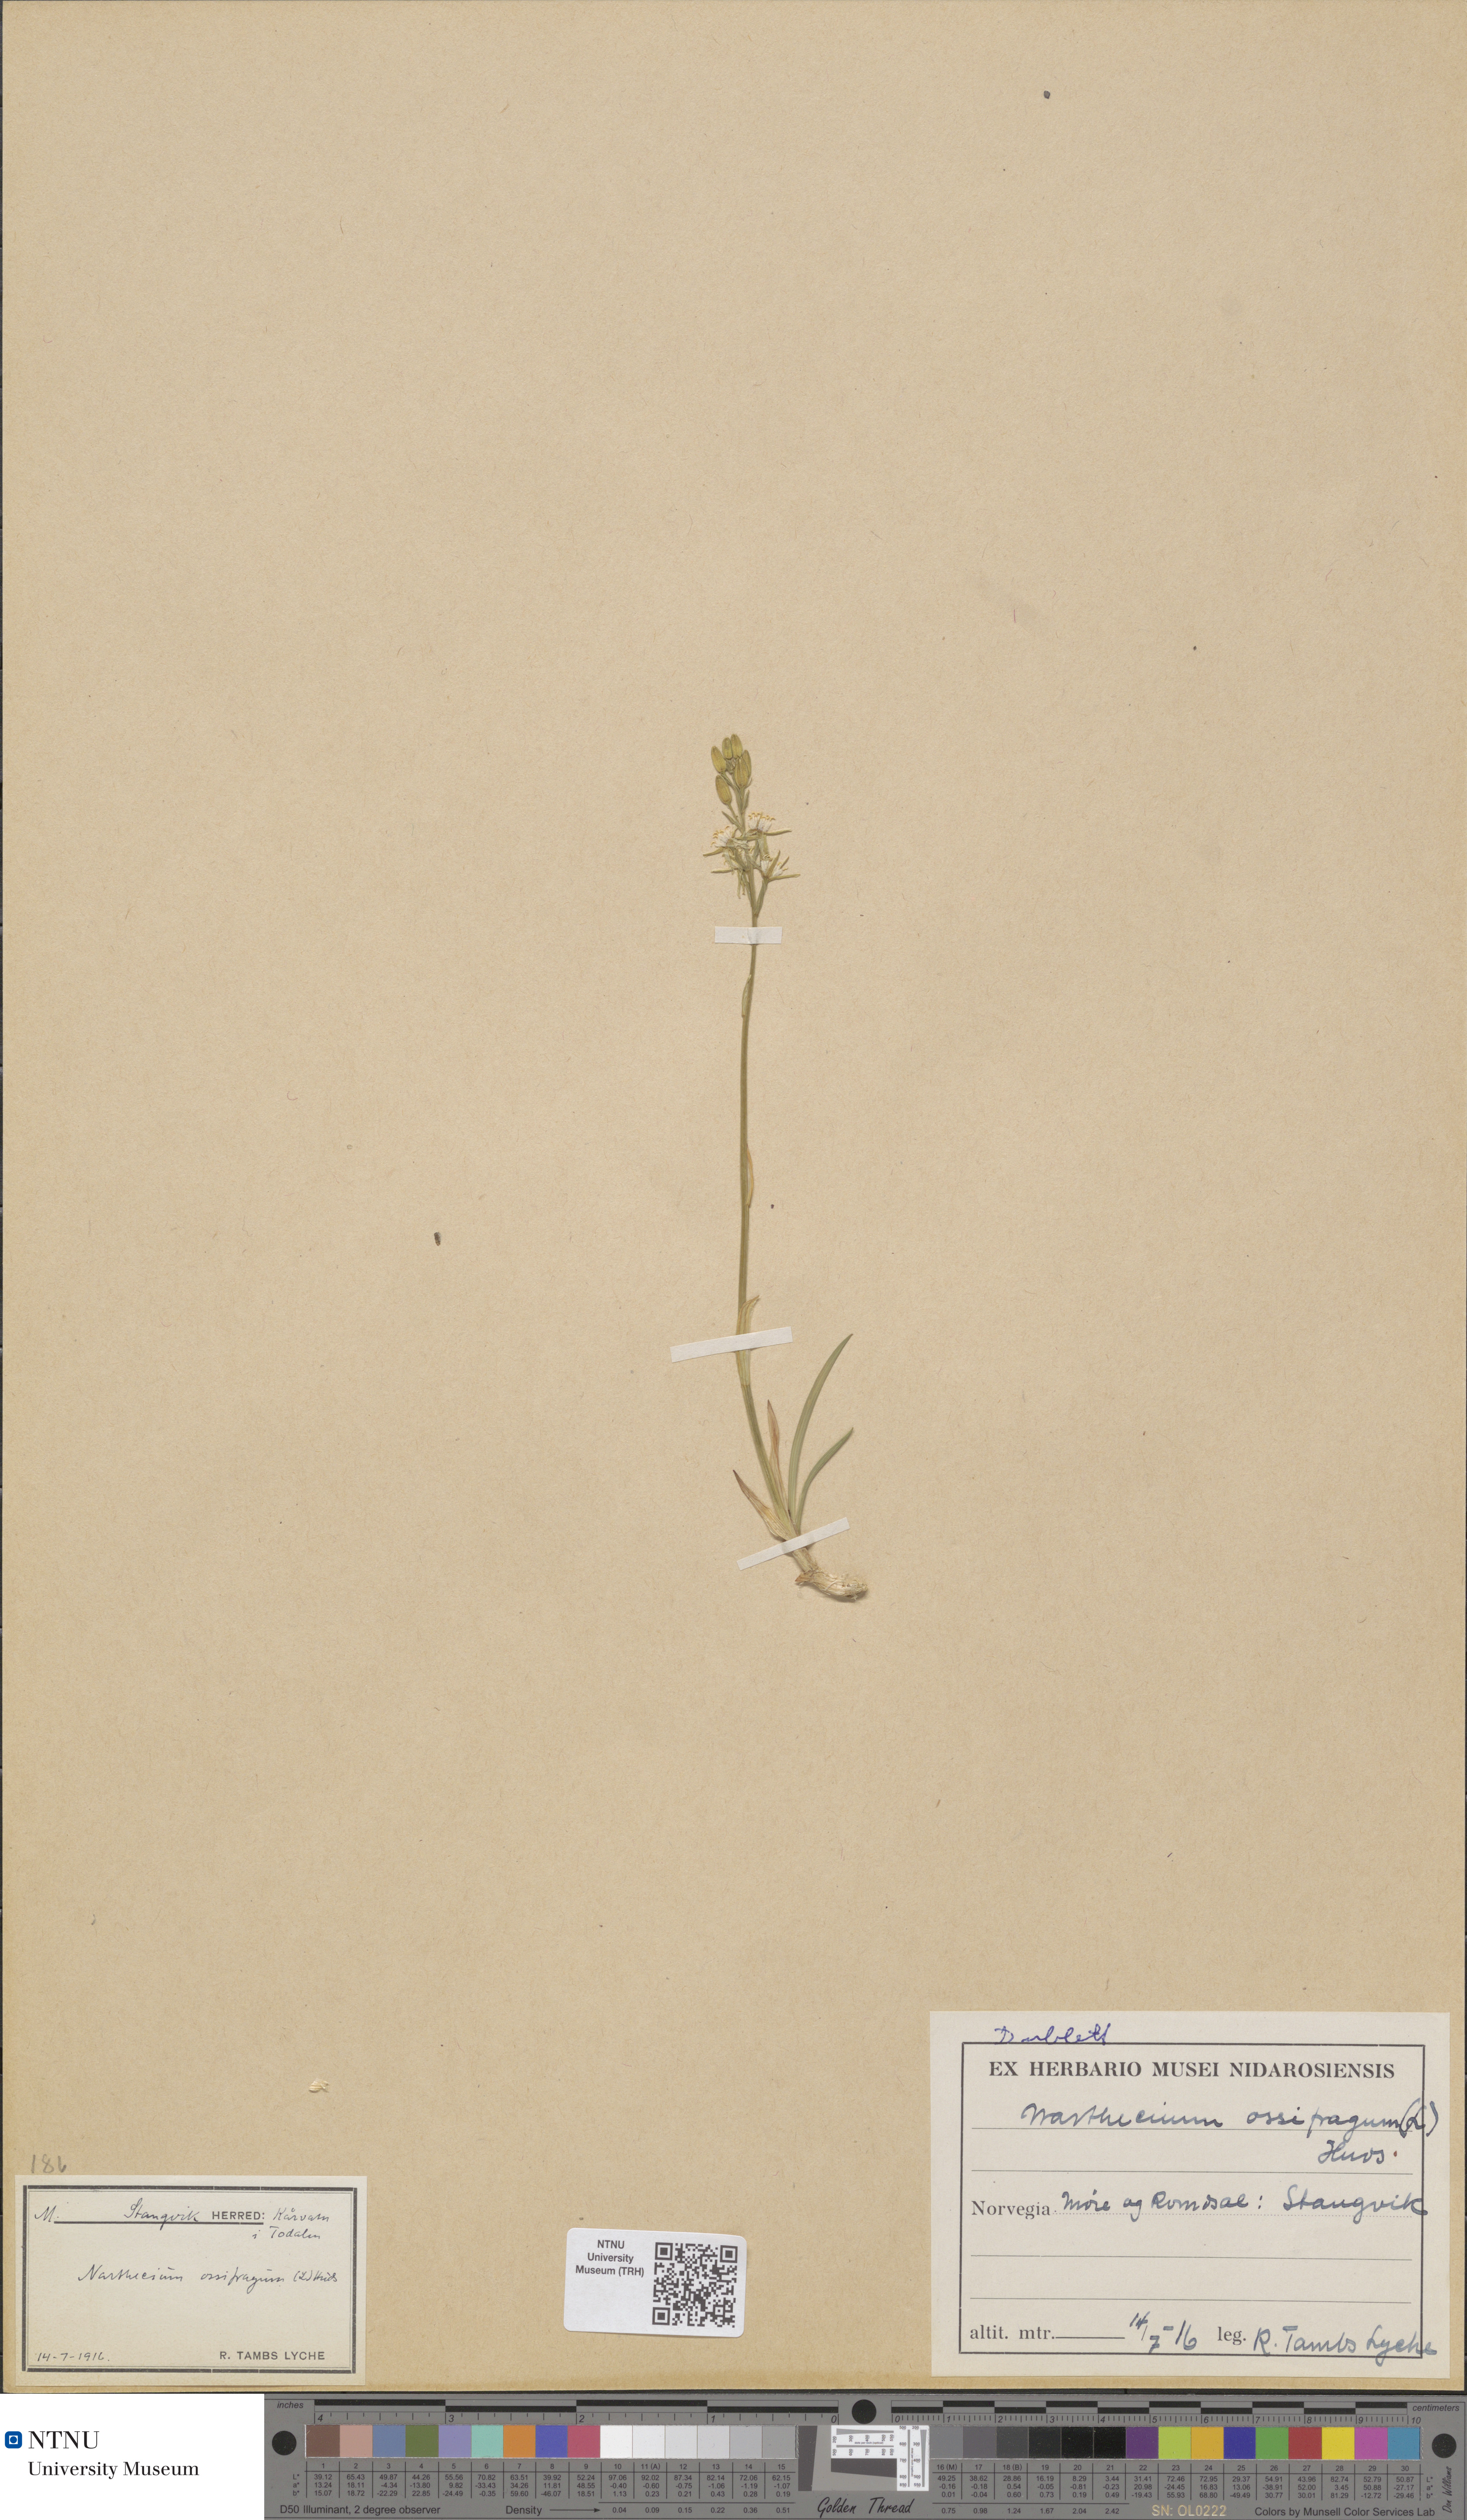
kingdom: Plantae
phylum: Tracheophyta
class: Liliopsida
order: Dioscoreales
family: Nartheciaceae
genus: Narthecium
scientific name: Narthecium ossifragum
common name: Bog asphodel
